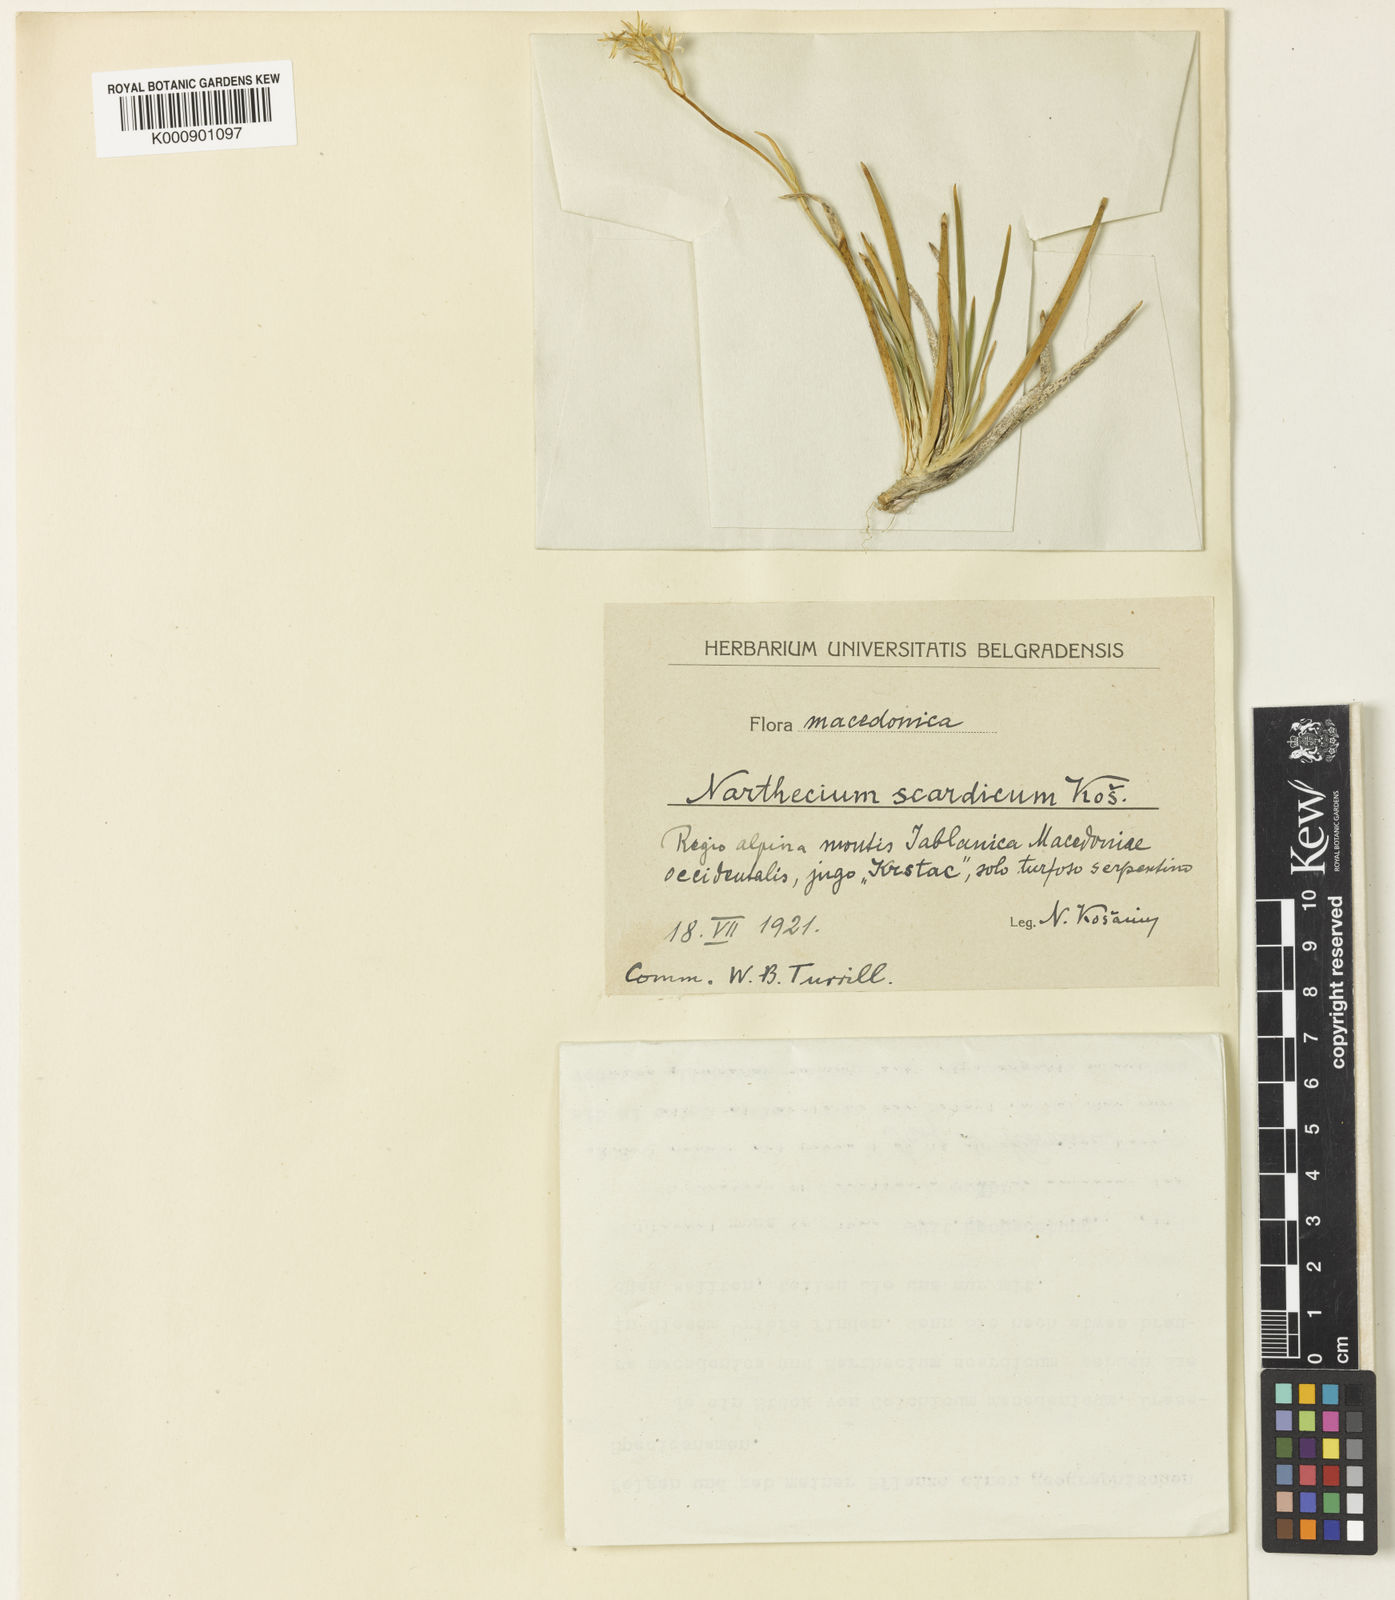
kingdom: Plantae
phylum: Tracheophyta
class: Liliopsida
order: Dioscoreales
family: Nartheciaceae
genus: Narthecium
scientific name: Narthecium reverchonii
